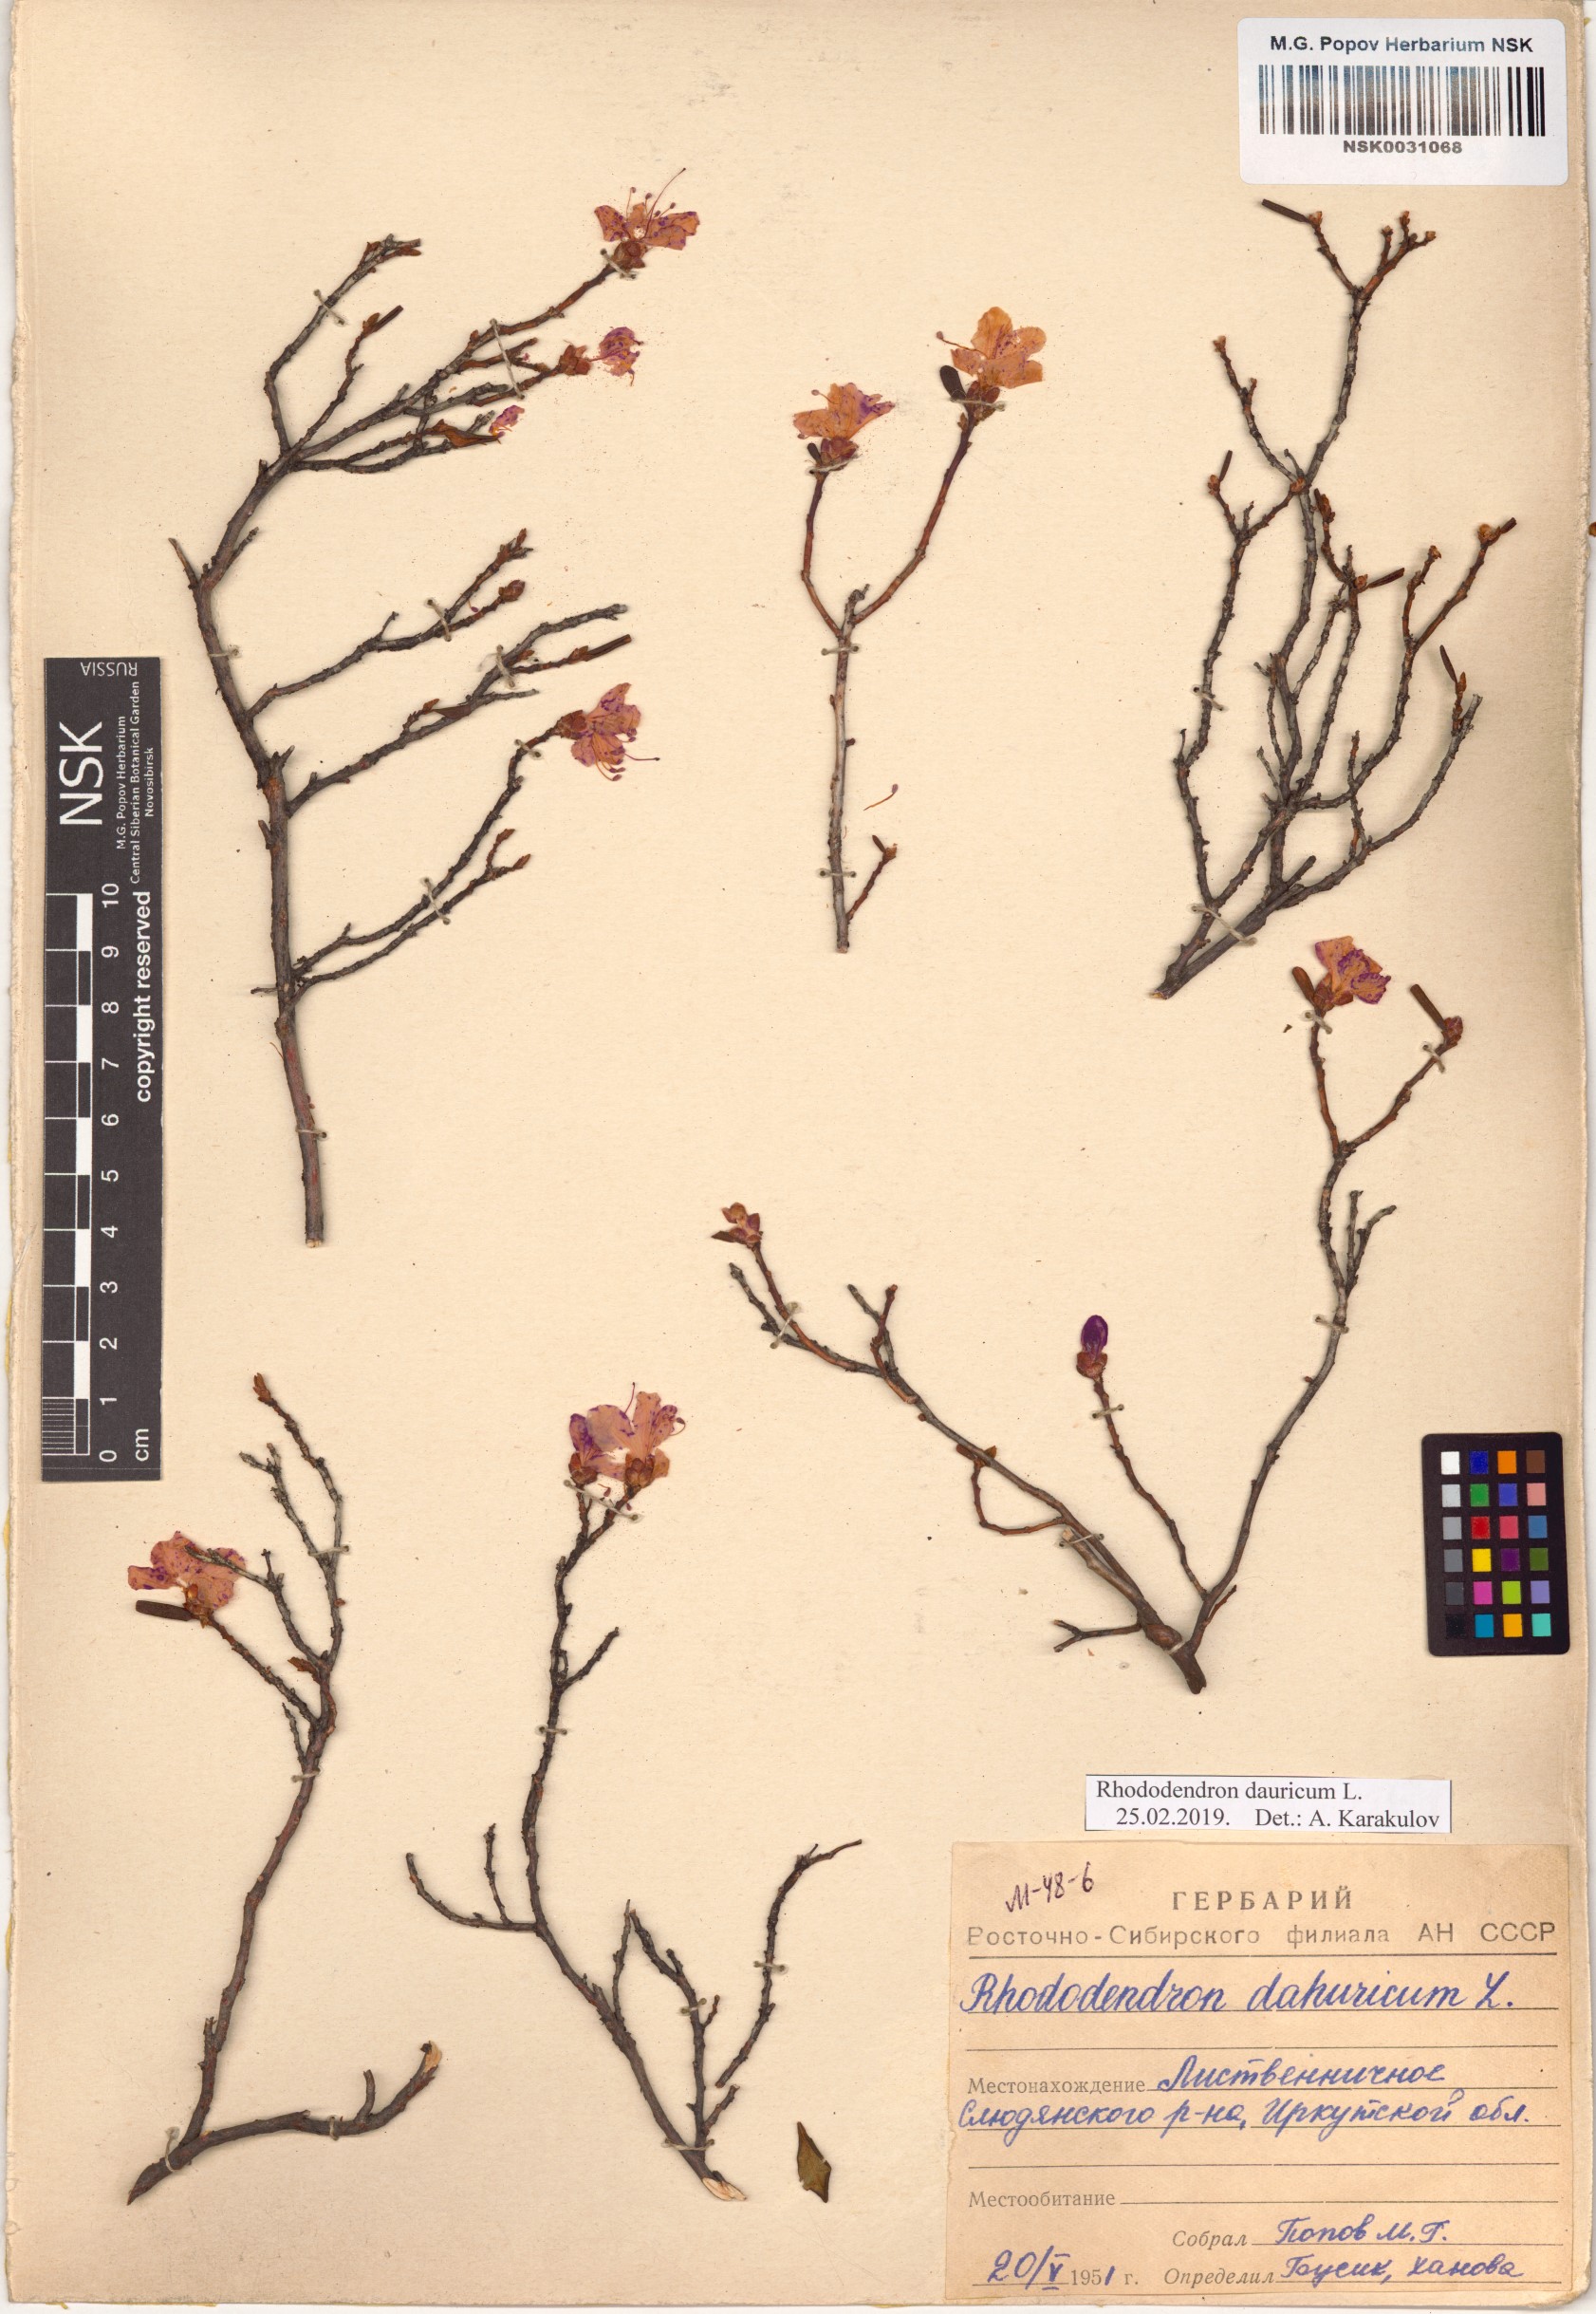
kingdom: Plantae
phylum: Tracheophyta
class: Magnoliopsida
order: Ericales
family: Ericaceae
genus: Rhododendron
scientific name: Rhododendron dauricum
